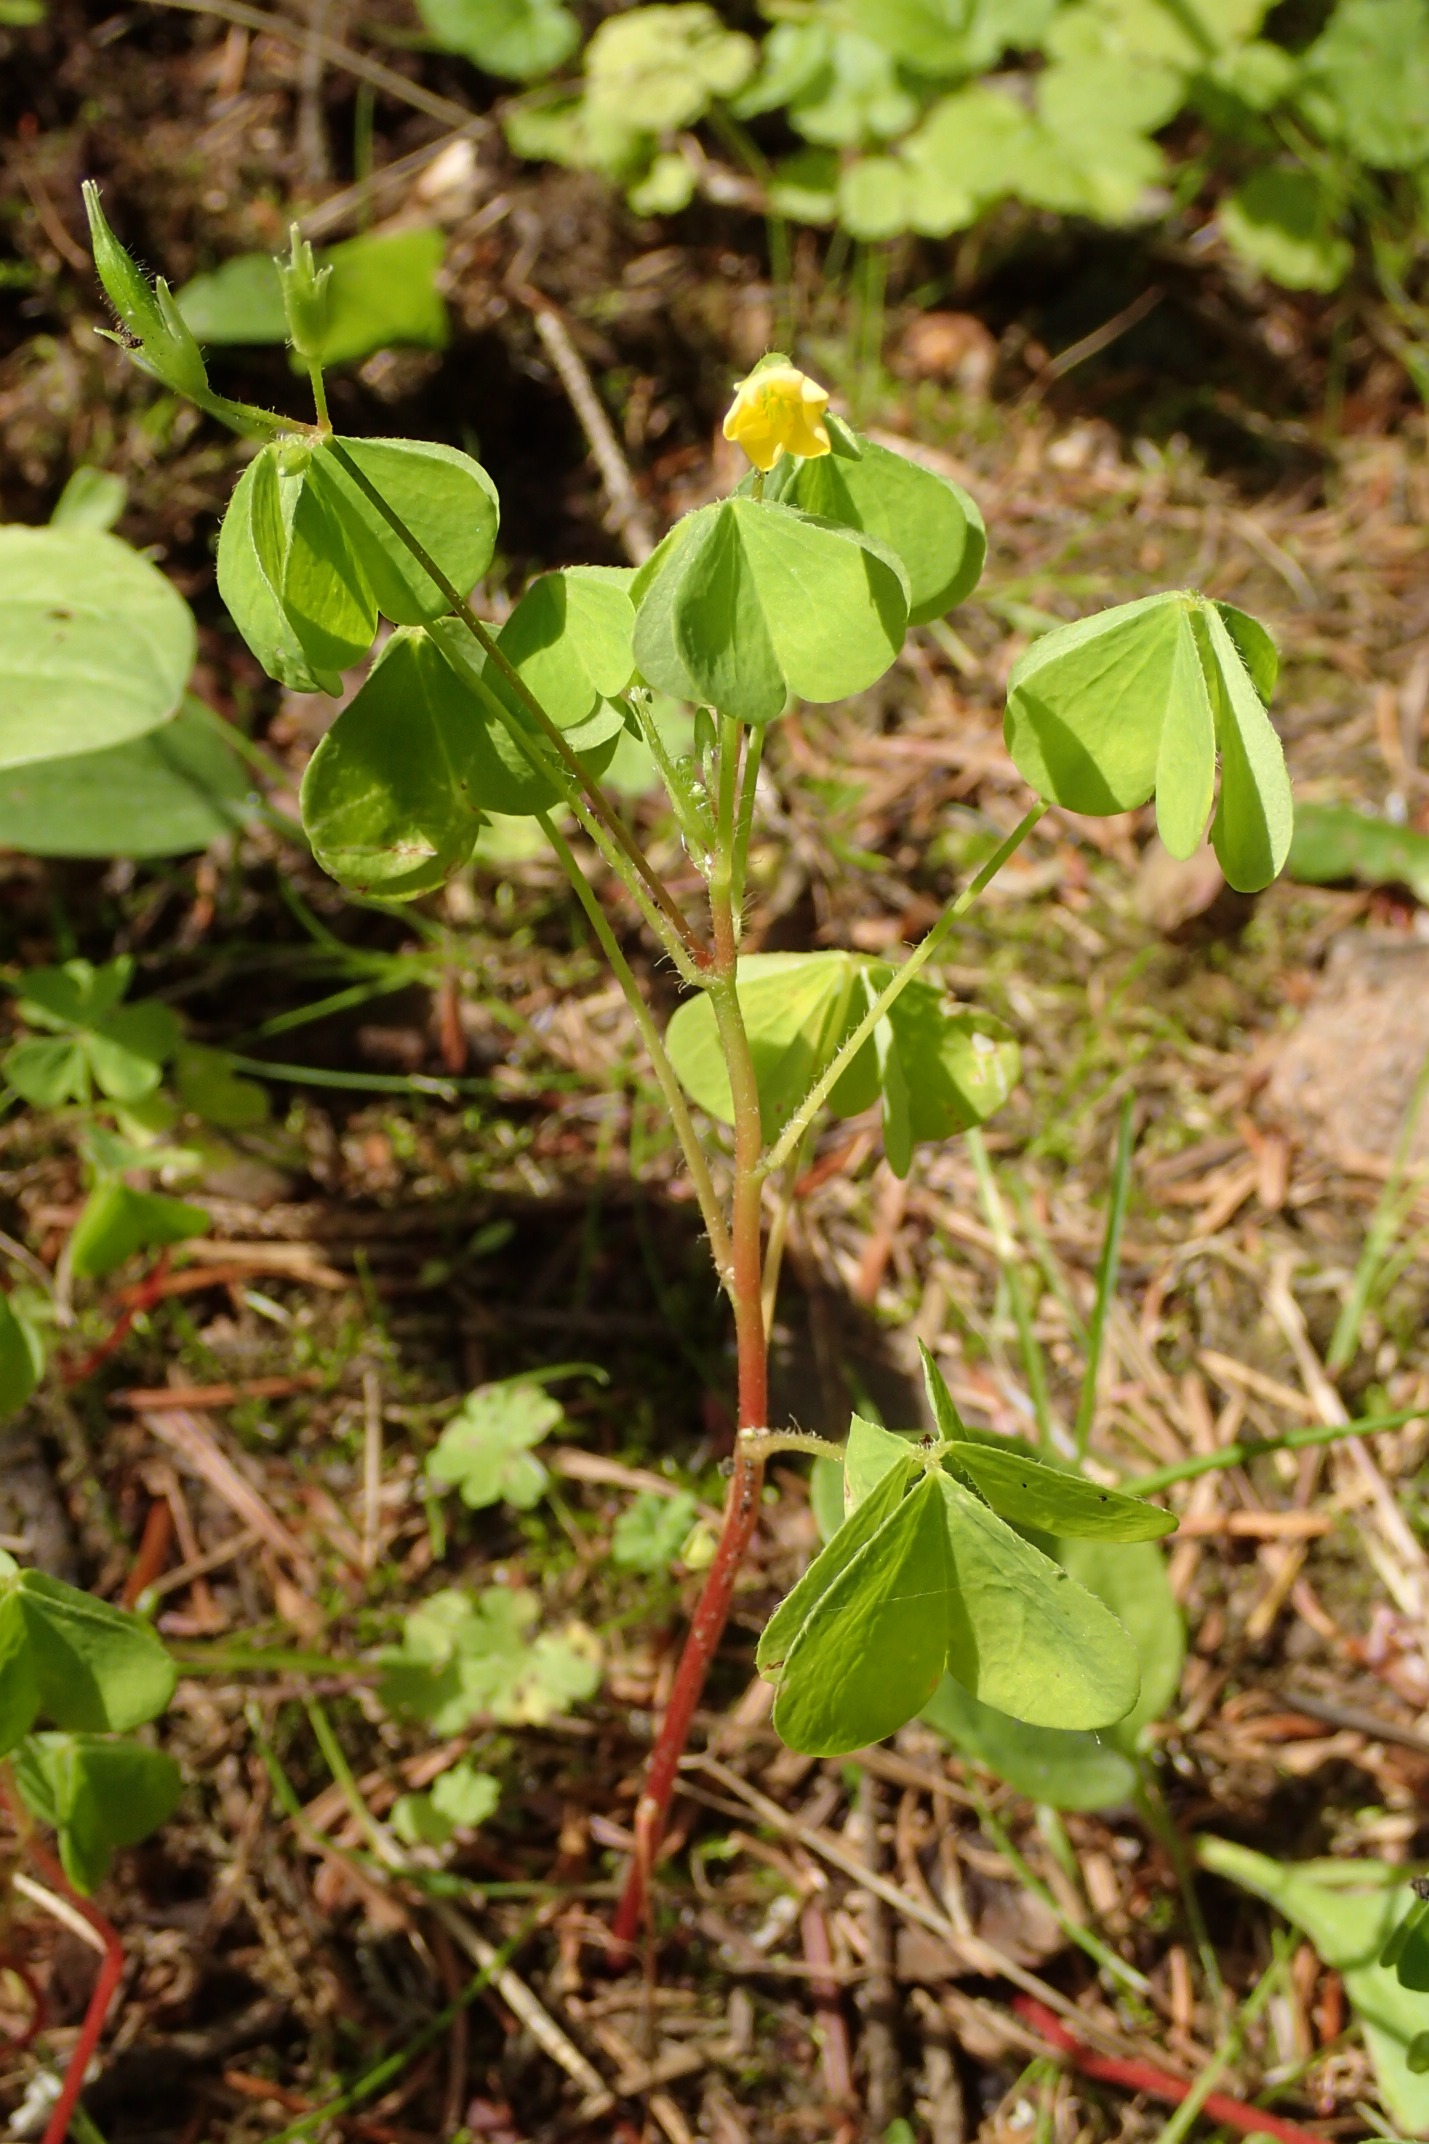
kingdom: Plantae
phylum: Tracheophyta
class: Magnoliopsida
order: Oxalidales
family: Oxalidaceae
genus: Oxalis
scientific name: Oxalis stricta
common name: Rank surkløver
